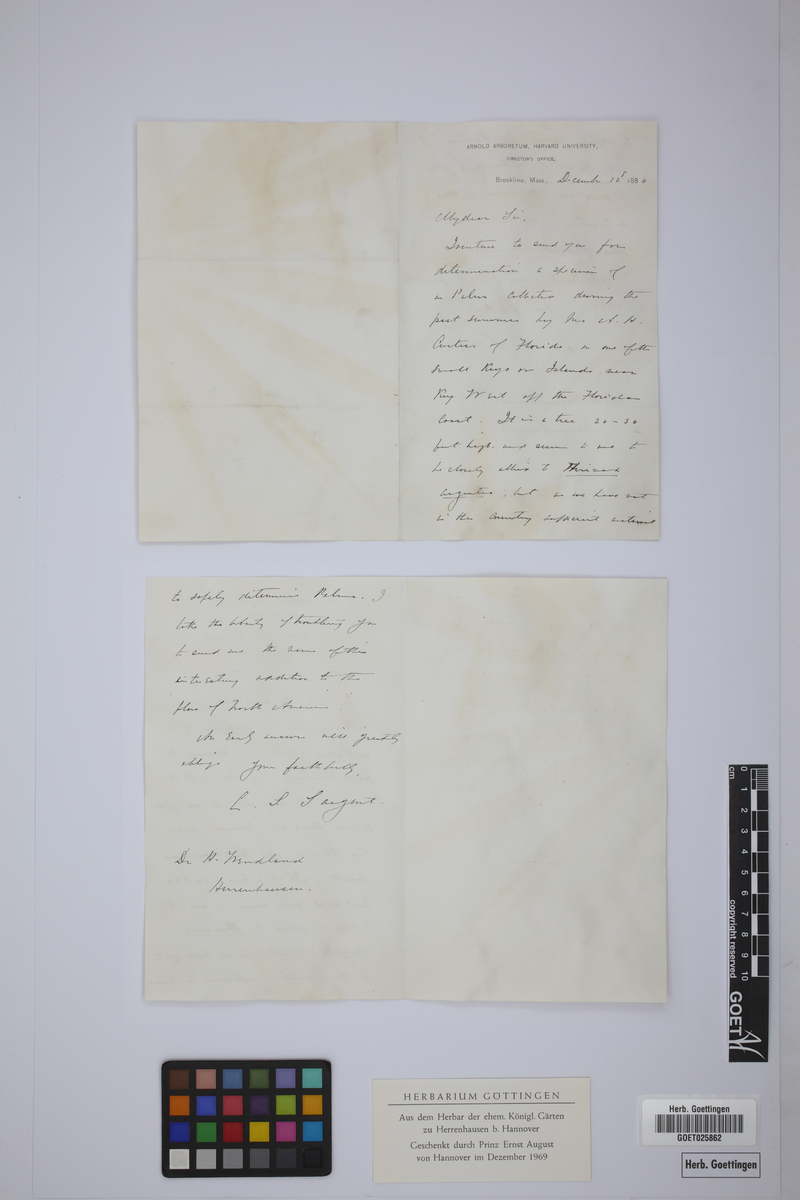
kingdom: Plantae
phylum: Tracheophyta
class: Liliopsida
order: Arecales
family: Arecaceae
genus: Thrinax
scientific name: Thrinax
